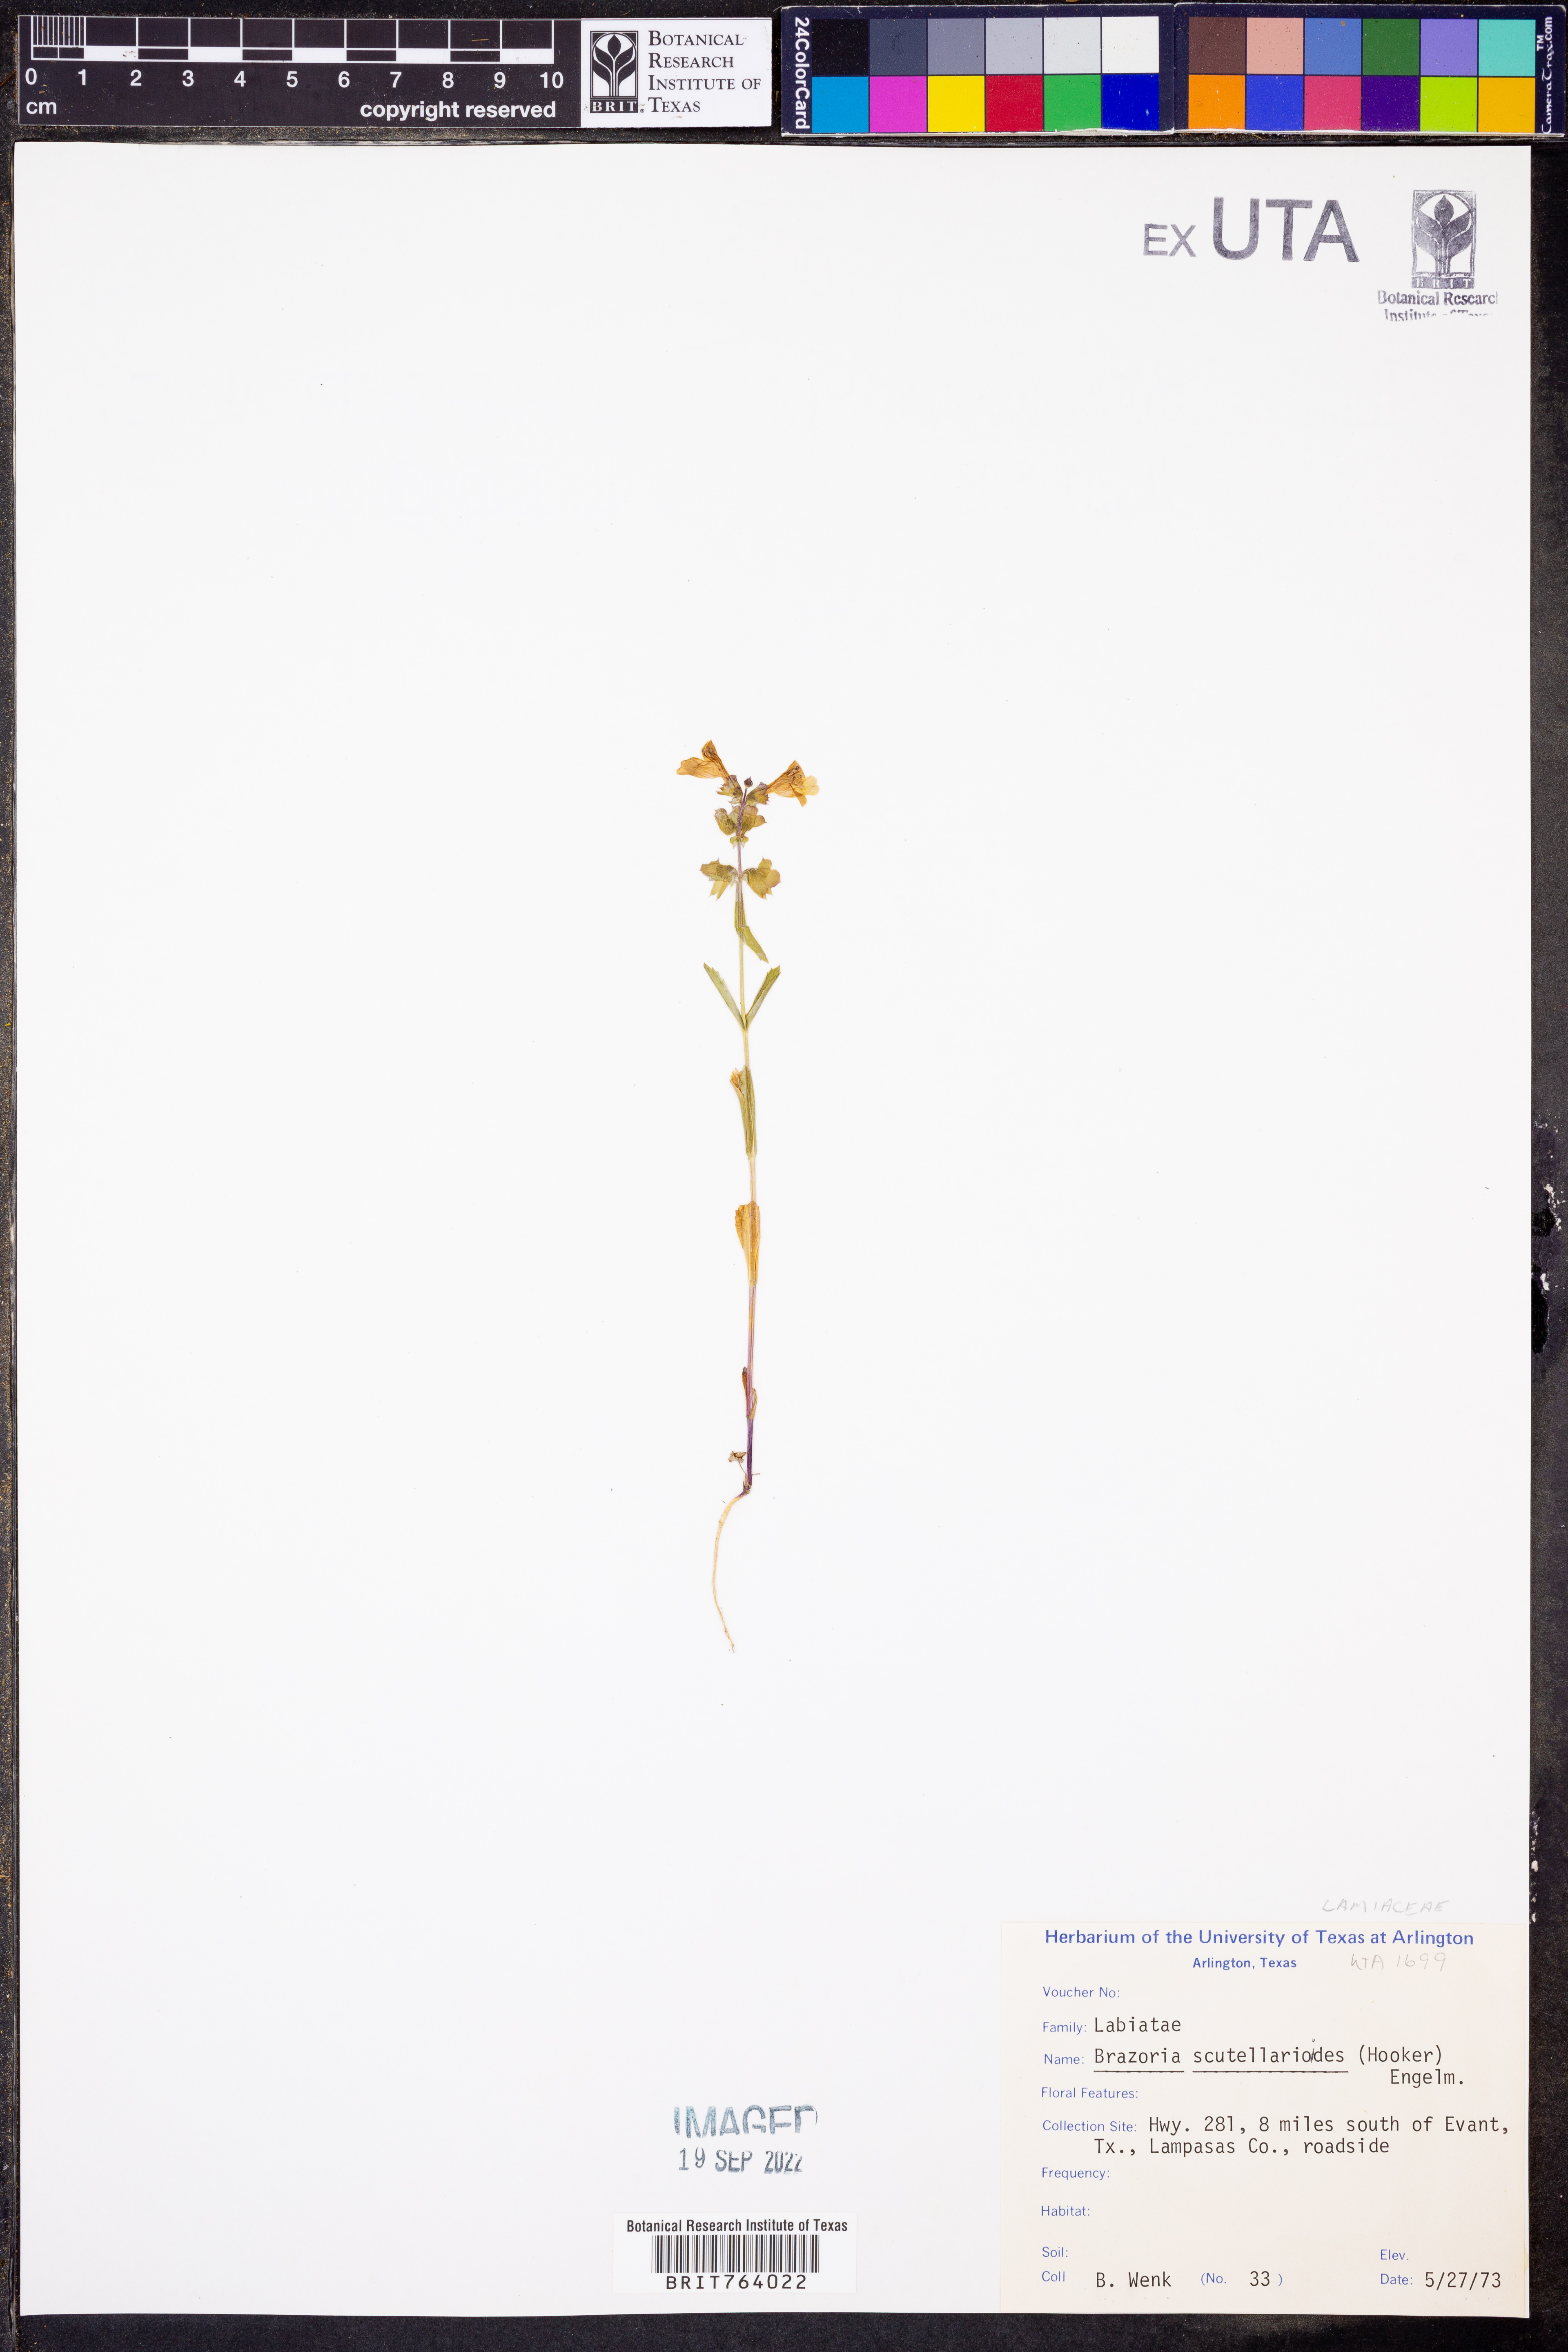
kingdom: Plantae
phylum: Tracheophyta
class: Magnoliopsida
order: Lamiales
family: Lamiaceae
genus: Warnockia
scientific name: Warnockia scutellarioides
